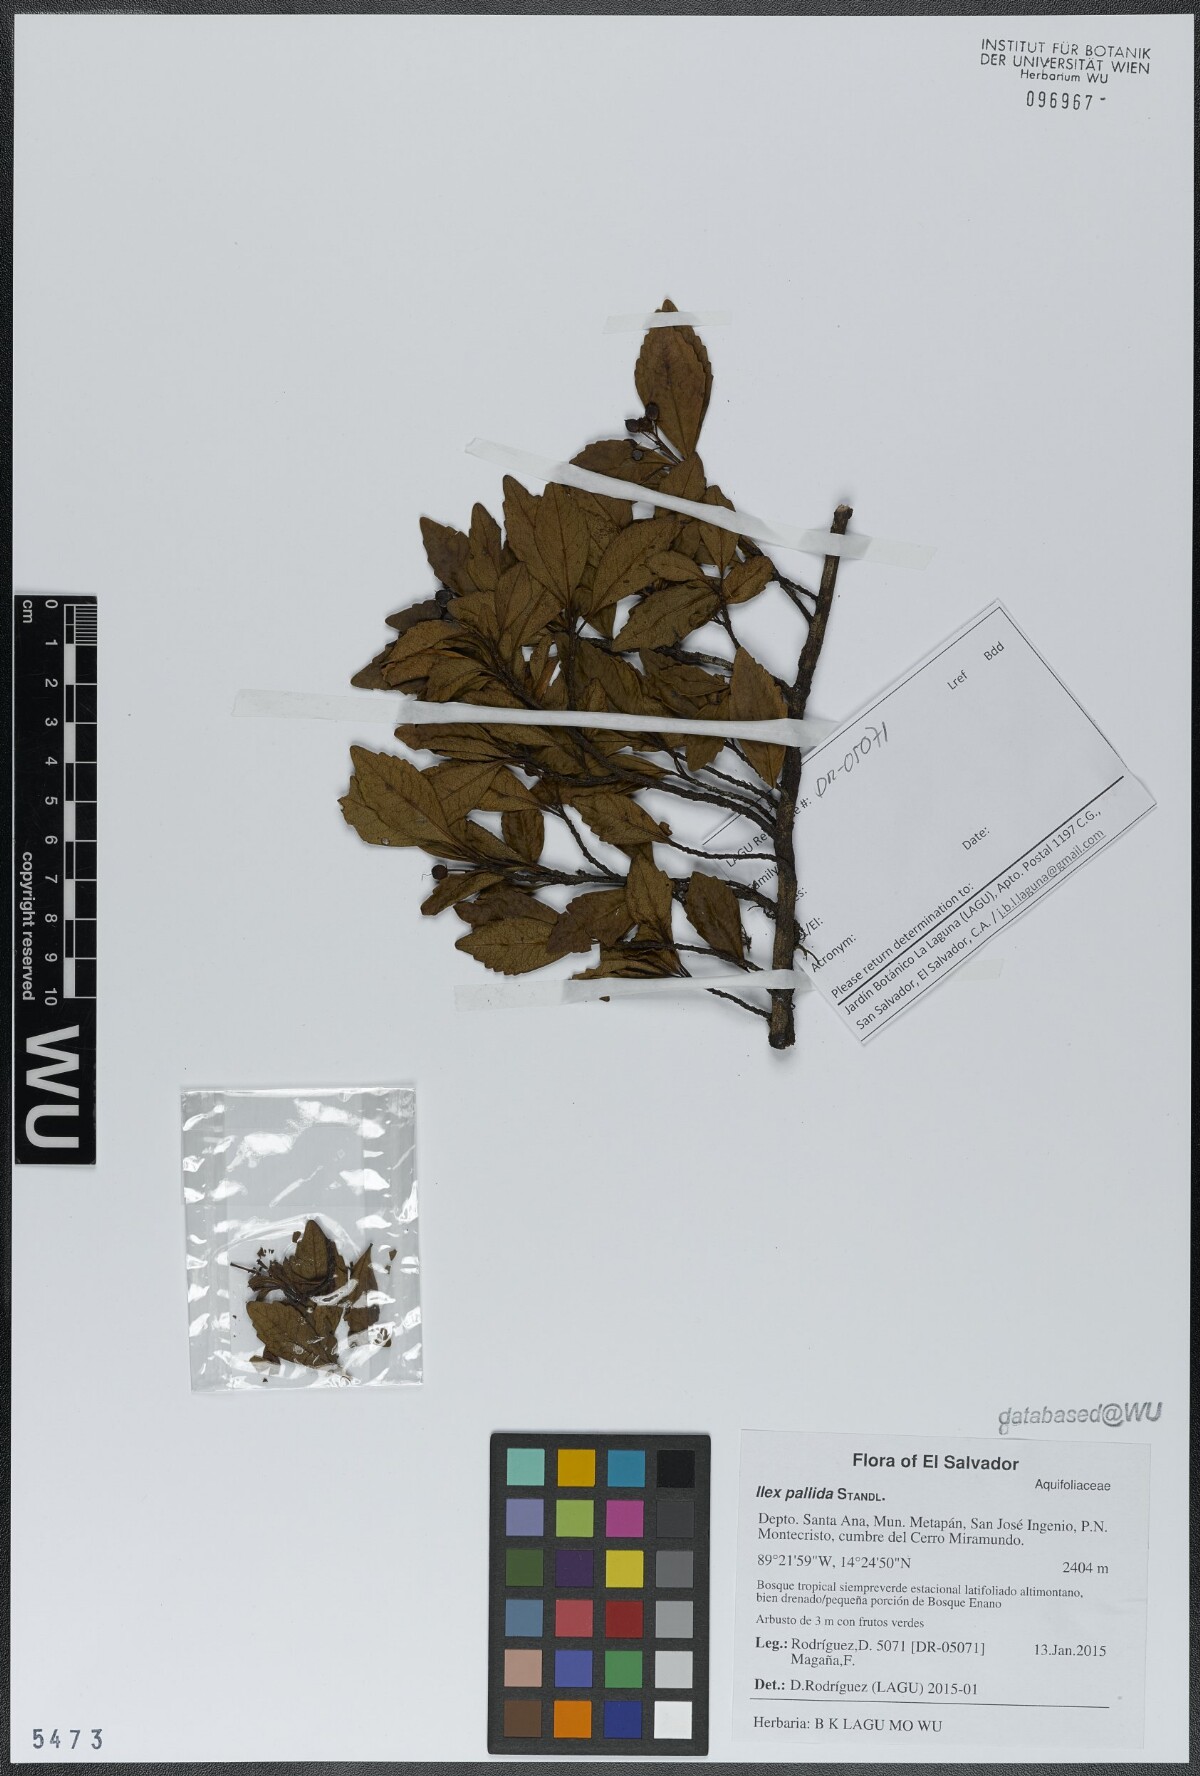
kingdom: Plantae
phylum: Tracheophyta
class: Magnoliopsida
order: Ericales
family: Primulaceae
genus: Gentlea
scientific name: Gentlea vatteri
